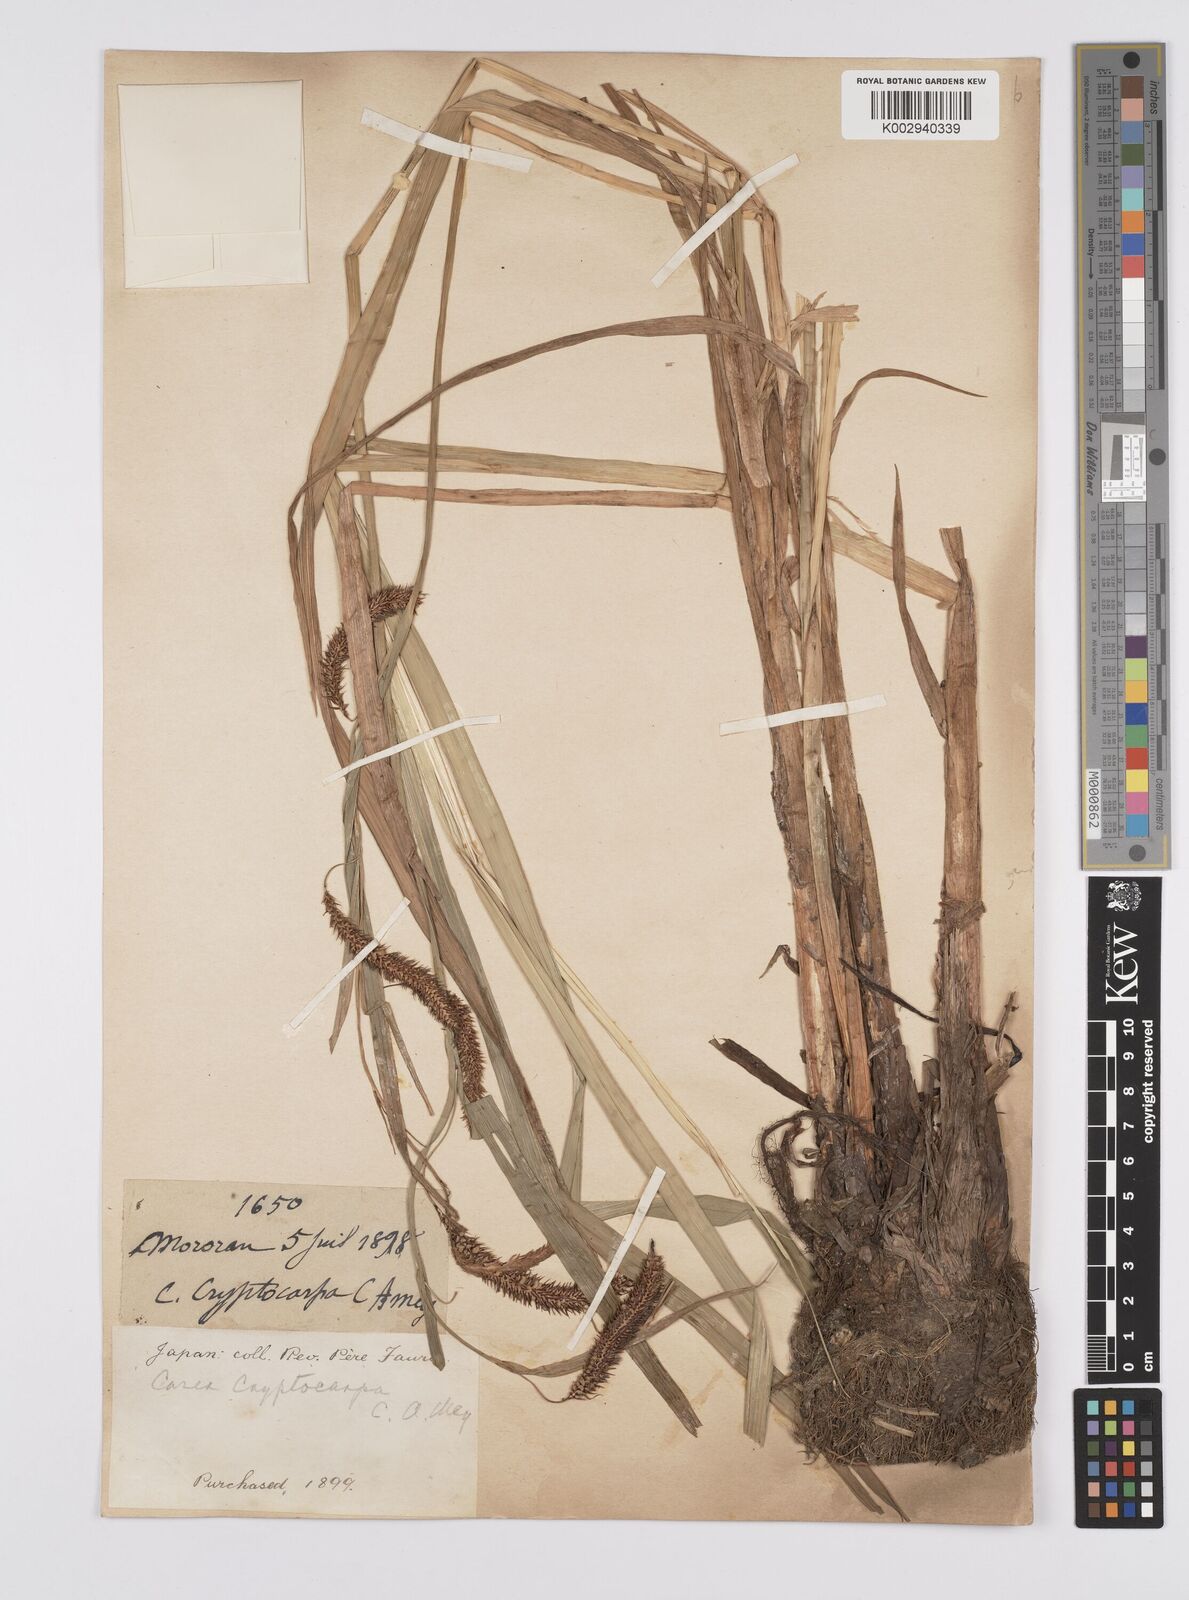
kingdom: Plantae
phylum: Tracheophyta
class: Liliopsida
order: Poales
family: Cyperaceae
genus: Carex
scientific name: Carex lyngbyei
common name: Lyngbye's sedge
